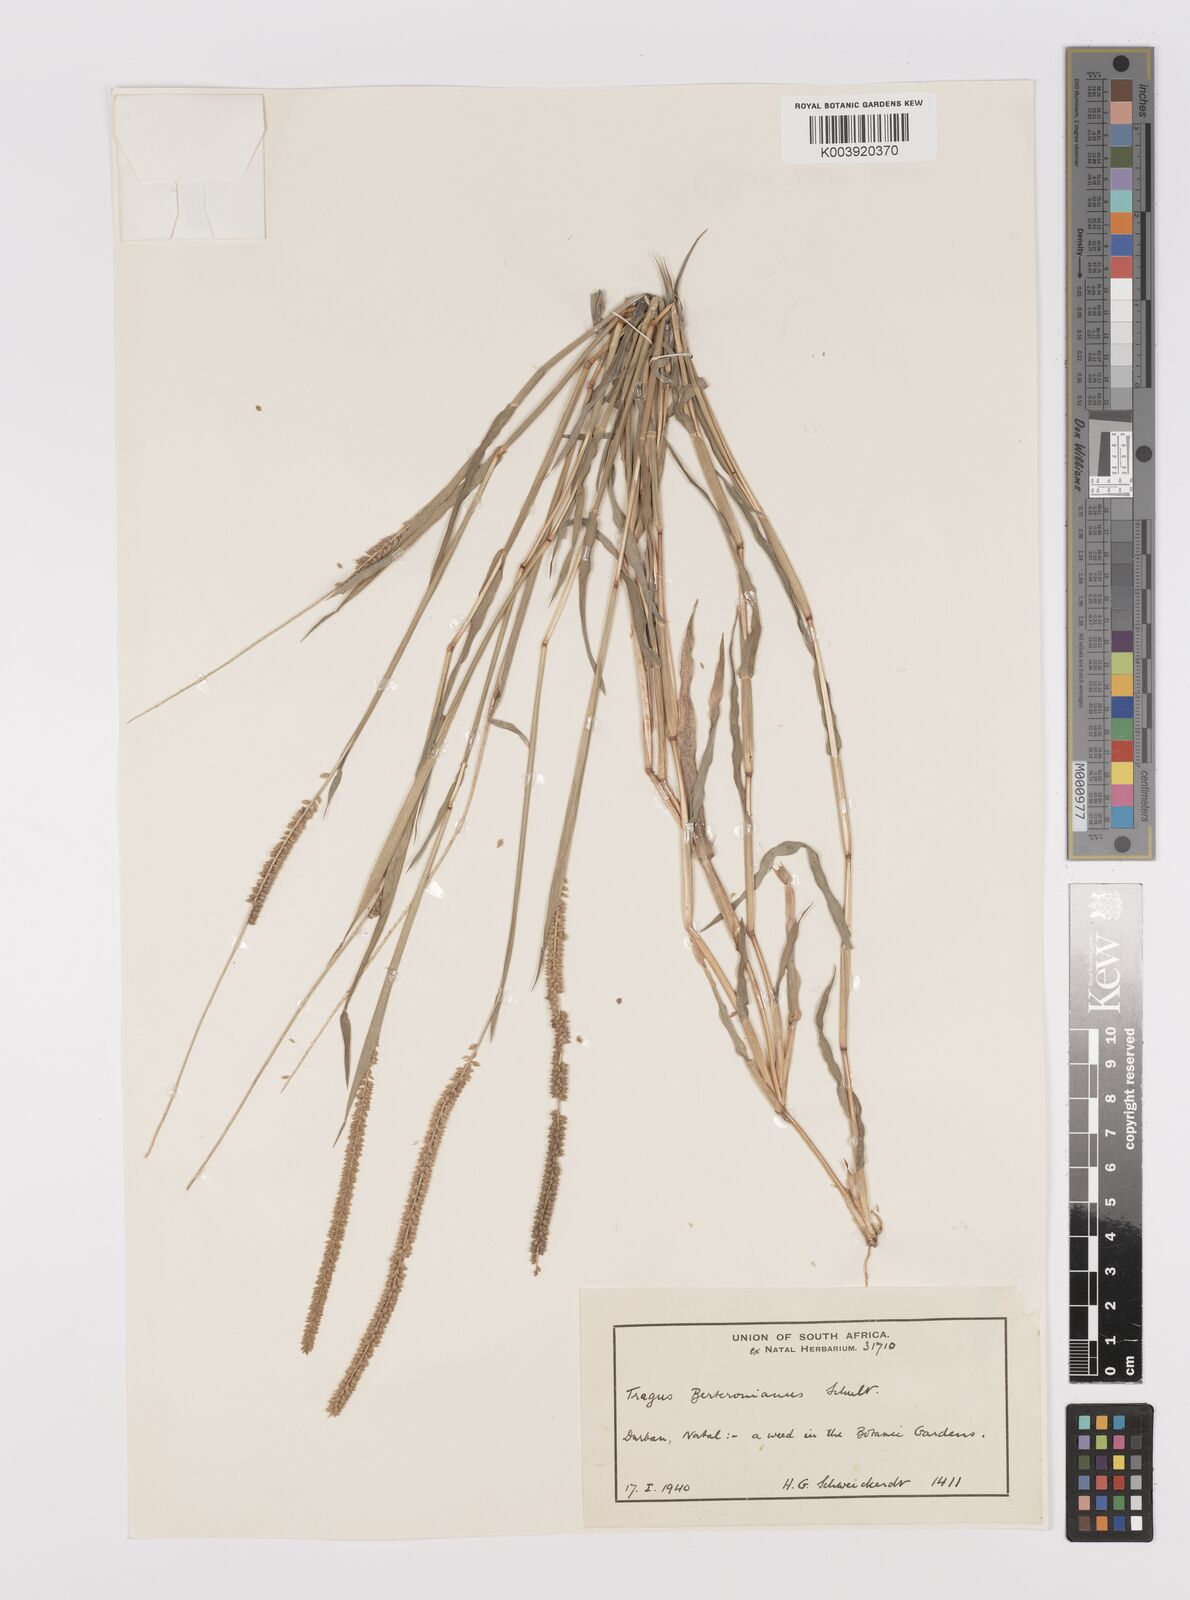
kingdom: Plantae
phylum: Tracheophyta
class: Liliopsida
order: Poales
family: Poaceae
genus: Tragus
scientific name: Tragus berteronianus
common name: African bur-grass
